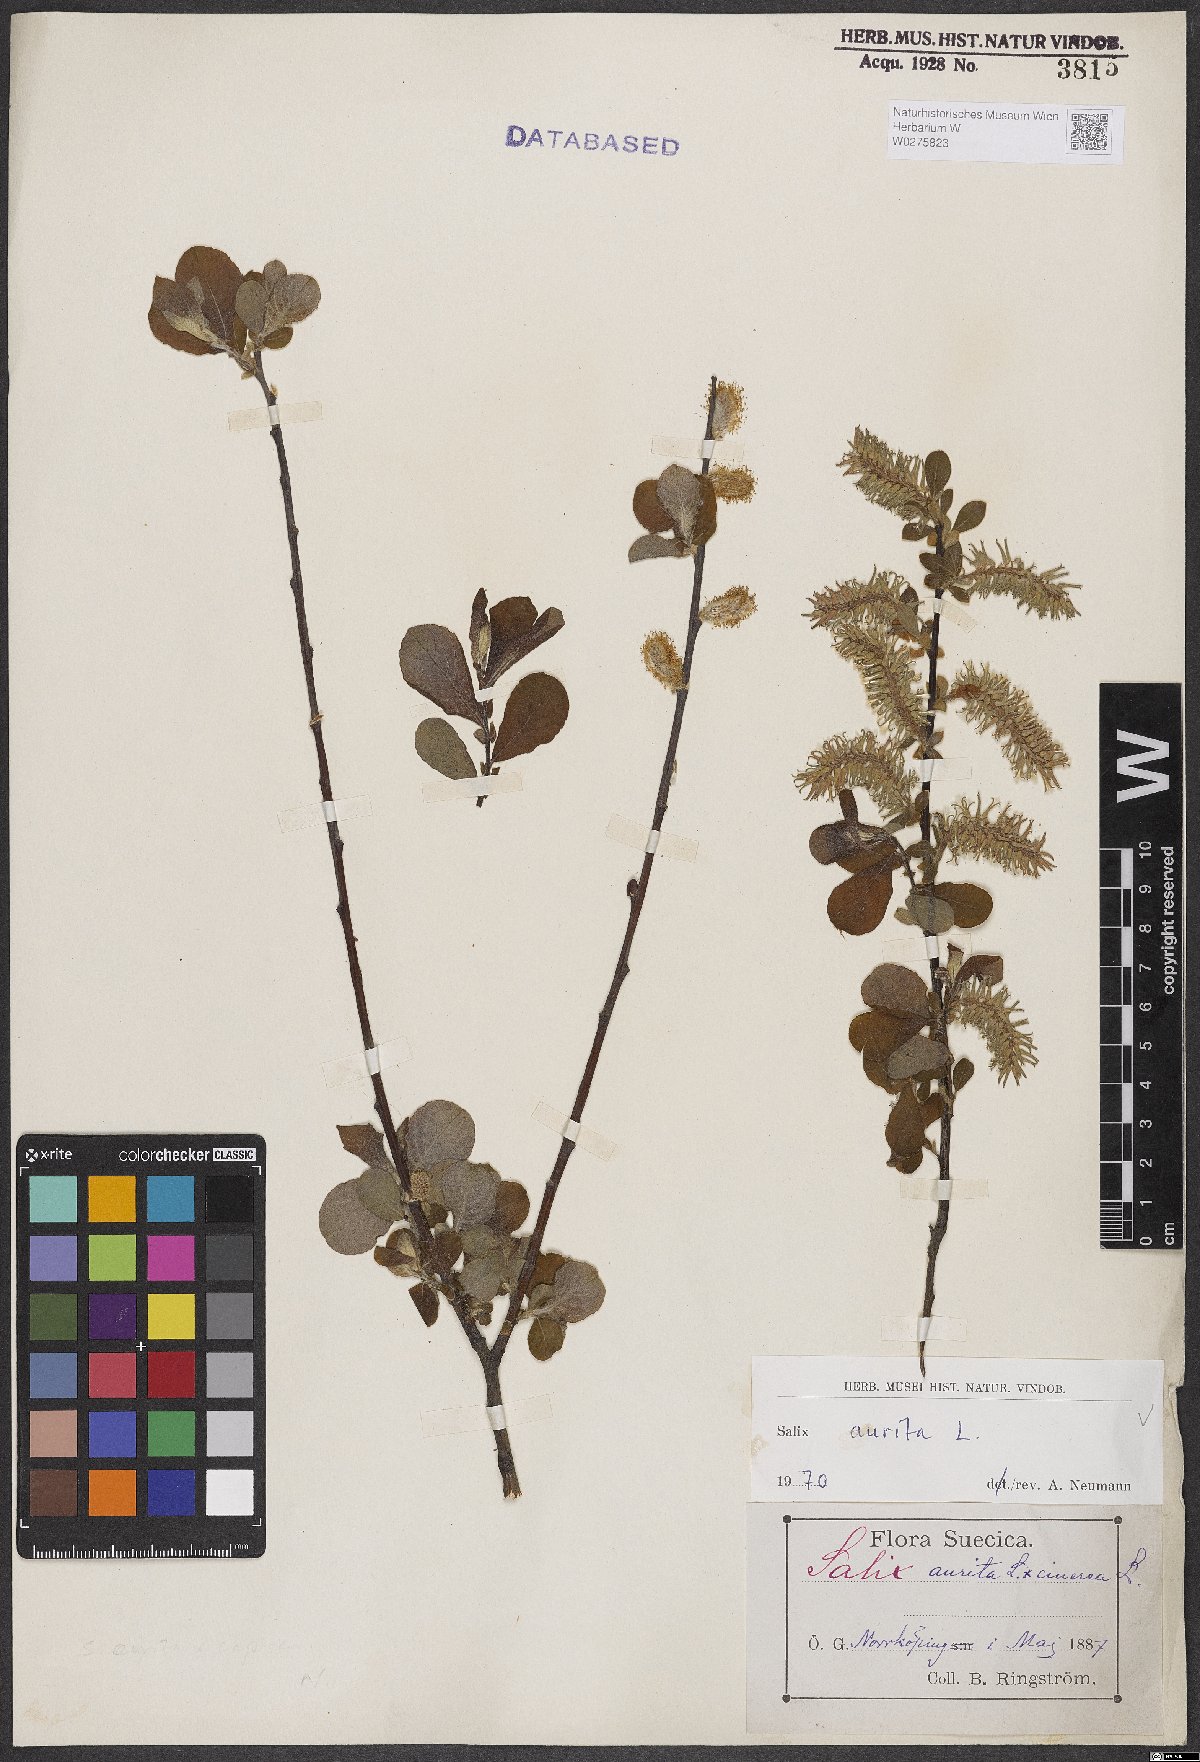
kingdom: Plantae
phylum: Tracheophyta
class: Magnoliopsida
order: Malpighiales
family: Salicaceae
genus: Salix
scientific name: Salix aurita
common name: Eared willow
